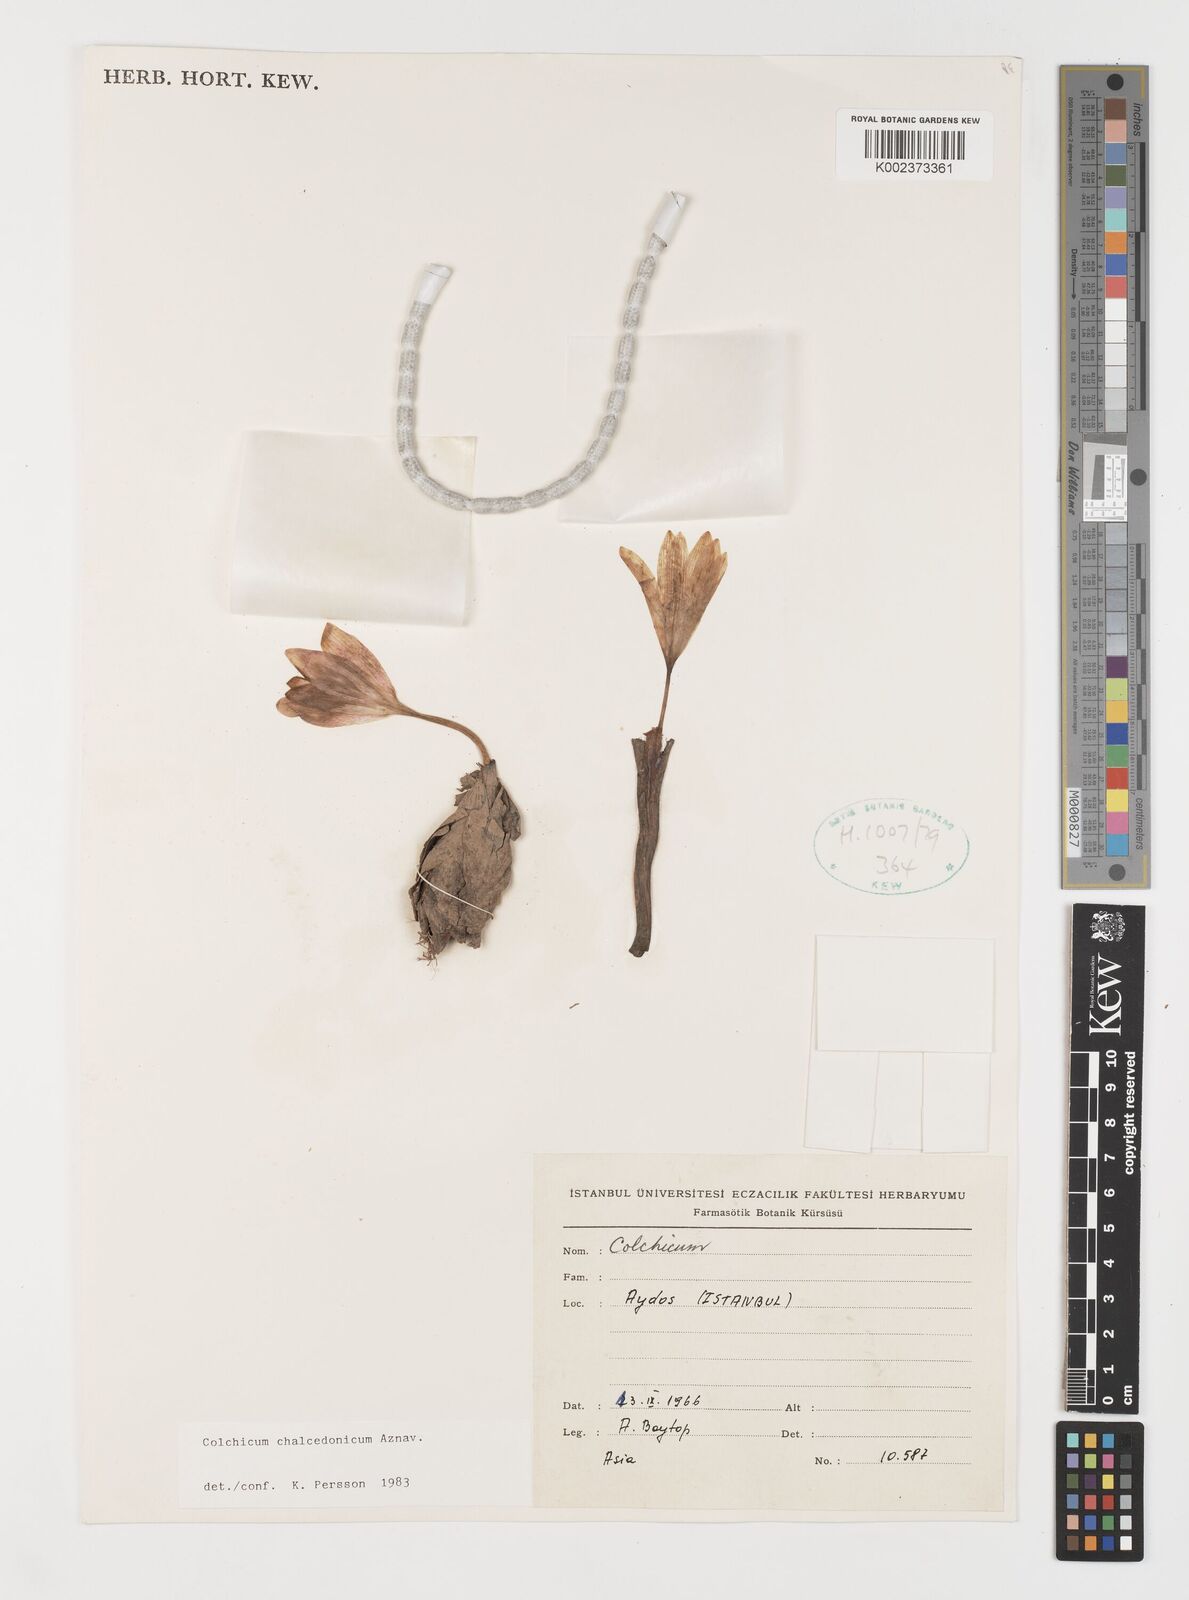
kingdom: Plantae
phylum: Tracheophyta
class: Liliopsida
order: Liliales
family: Colchicaceae
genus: Colchicum
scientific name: Colchicum chalcedonicum
